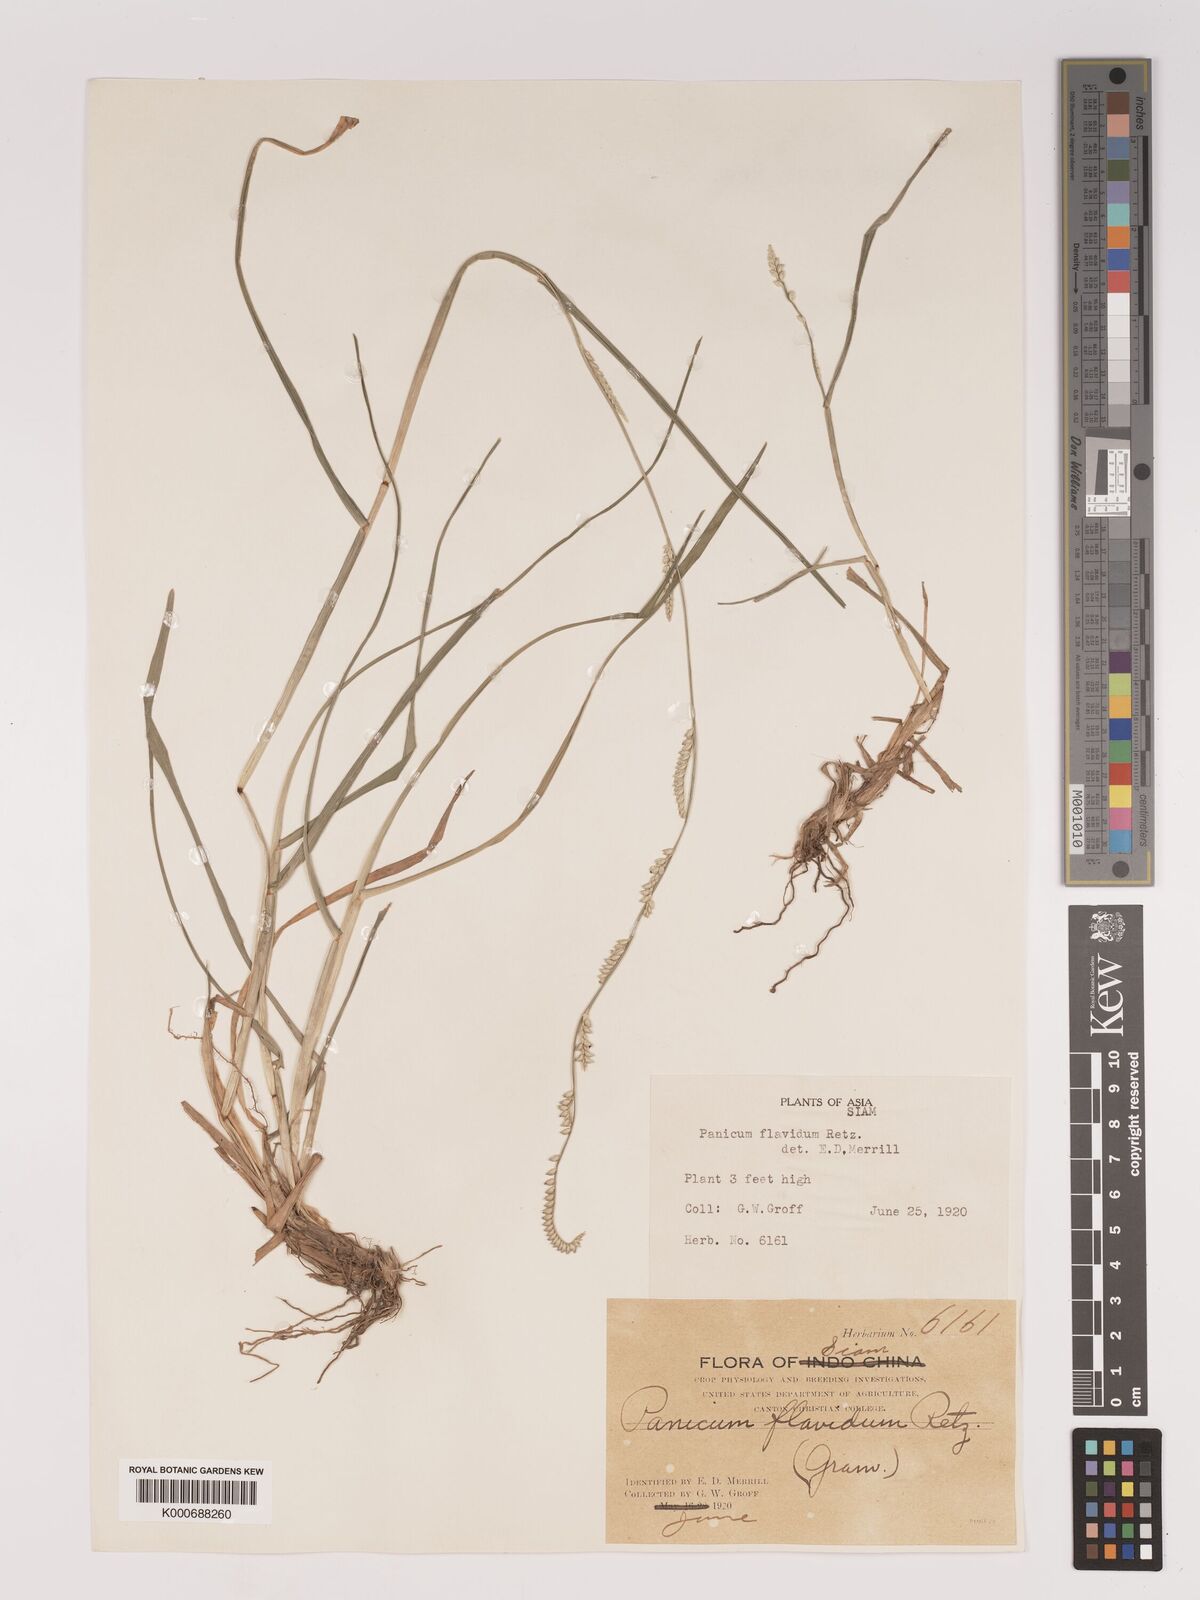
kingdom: Plantae
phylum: Tracheophyta
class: Liliopsida
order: Poales
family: Poaceae
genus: Setaria
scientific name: Setaria flavida
